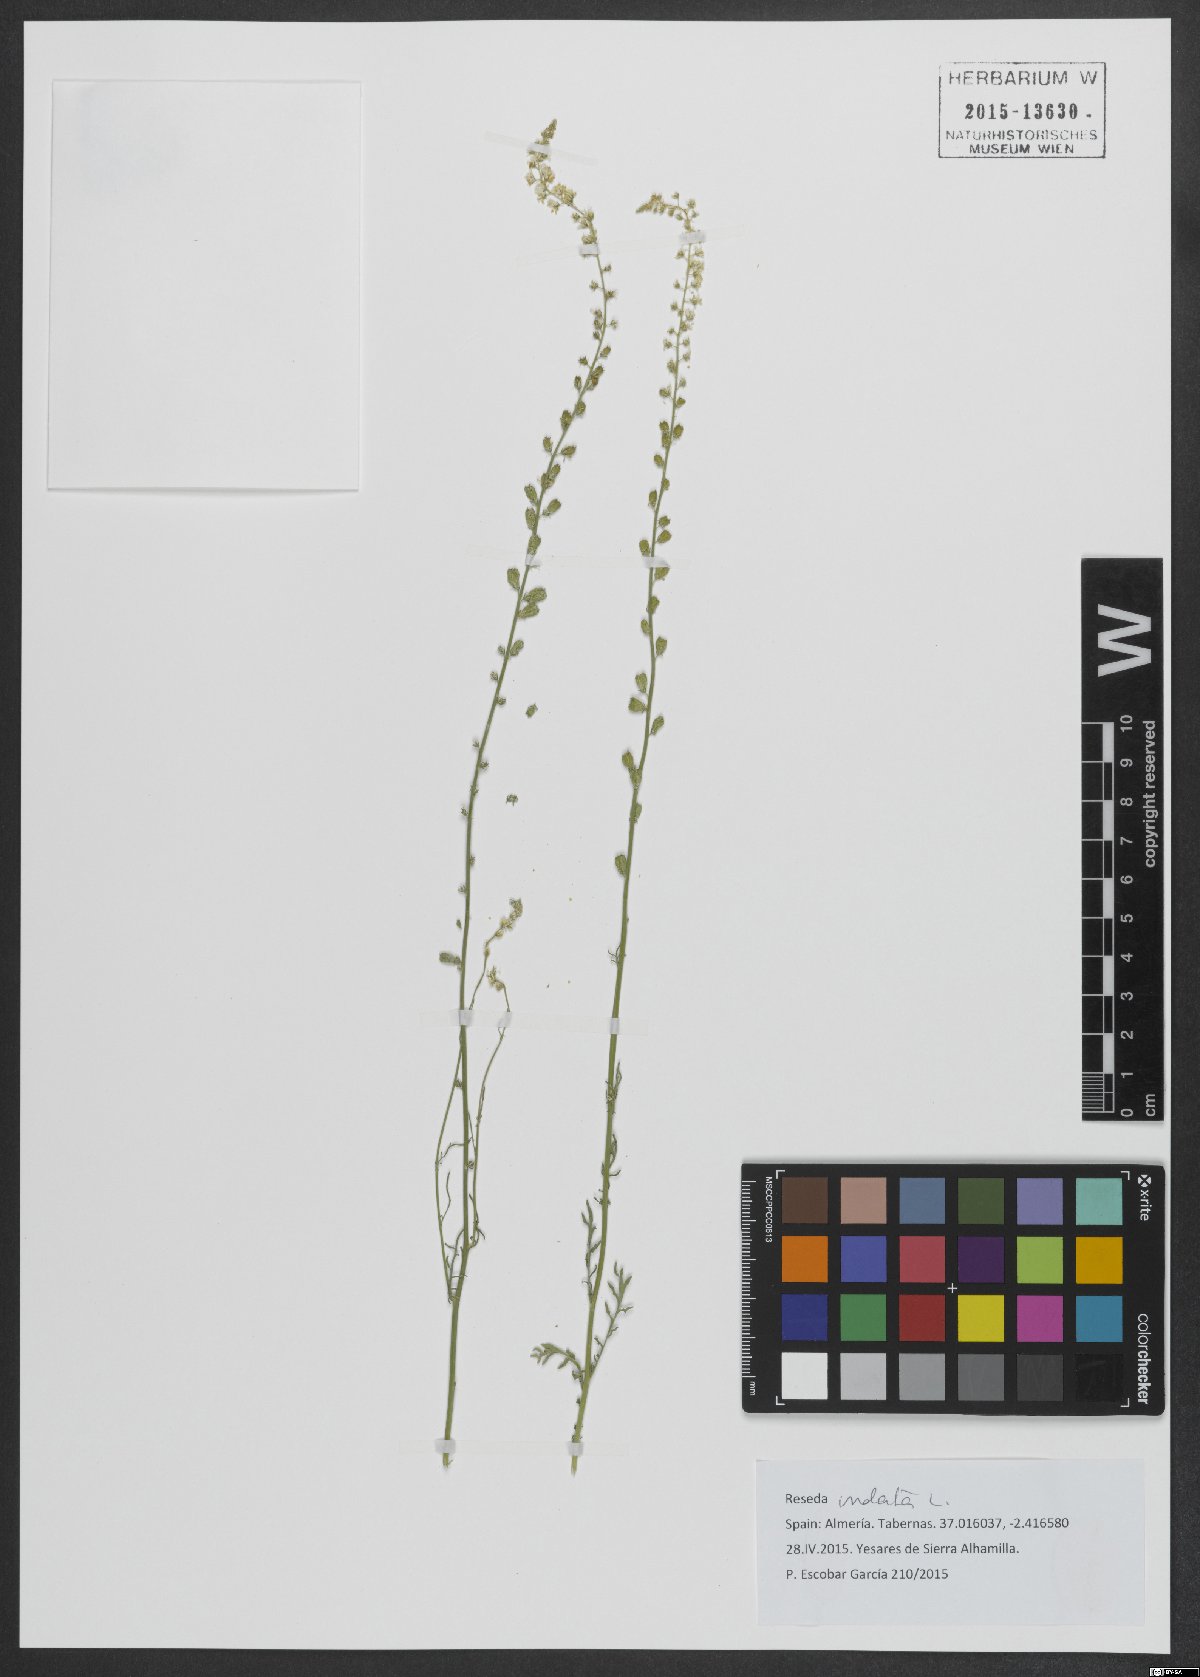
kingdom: Plantae
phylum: Tracheophyta
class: Magnoliopsida
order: Brassicales
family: Resedaceae
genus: Reseda
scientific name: Reseda undata
